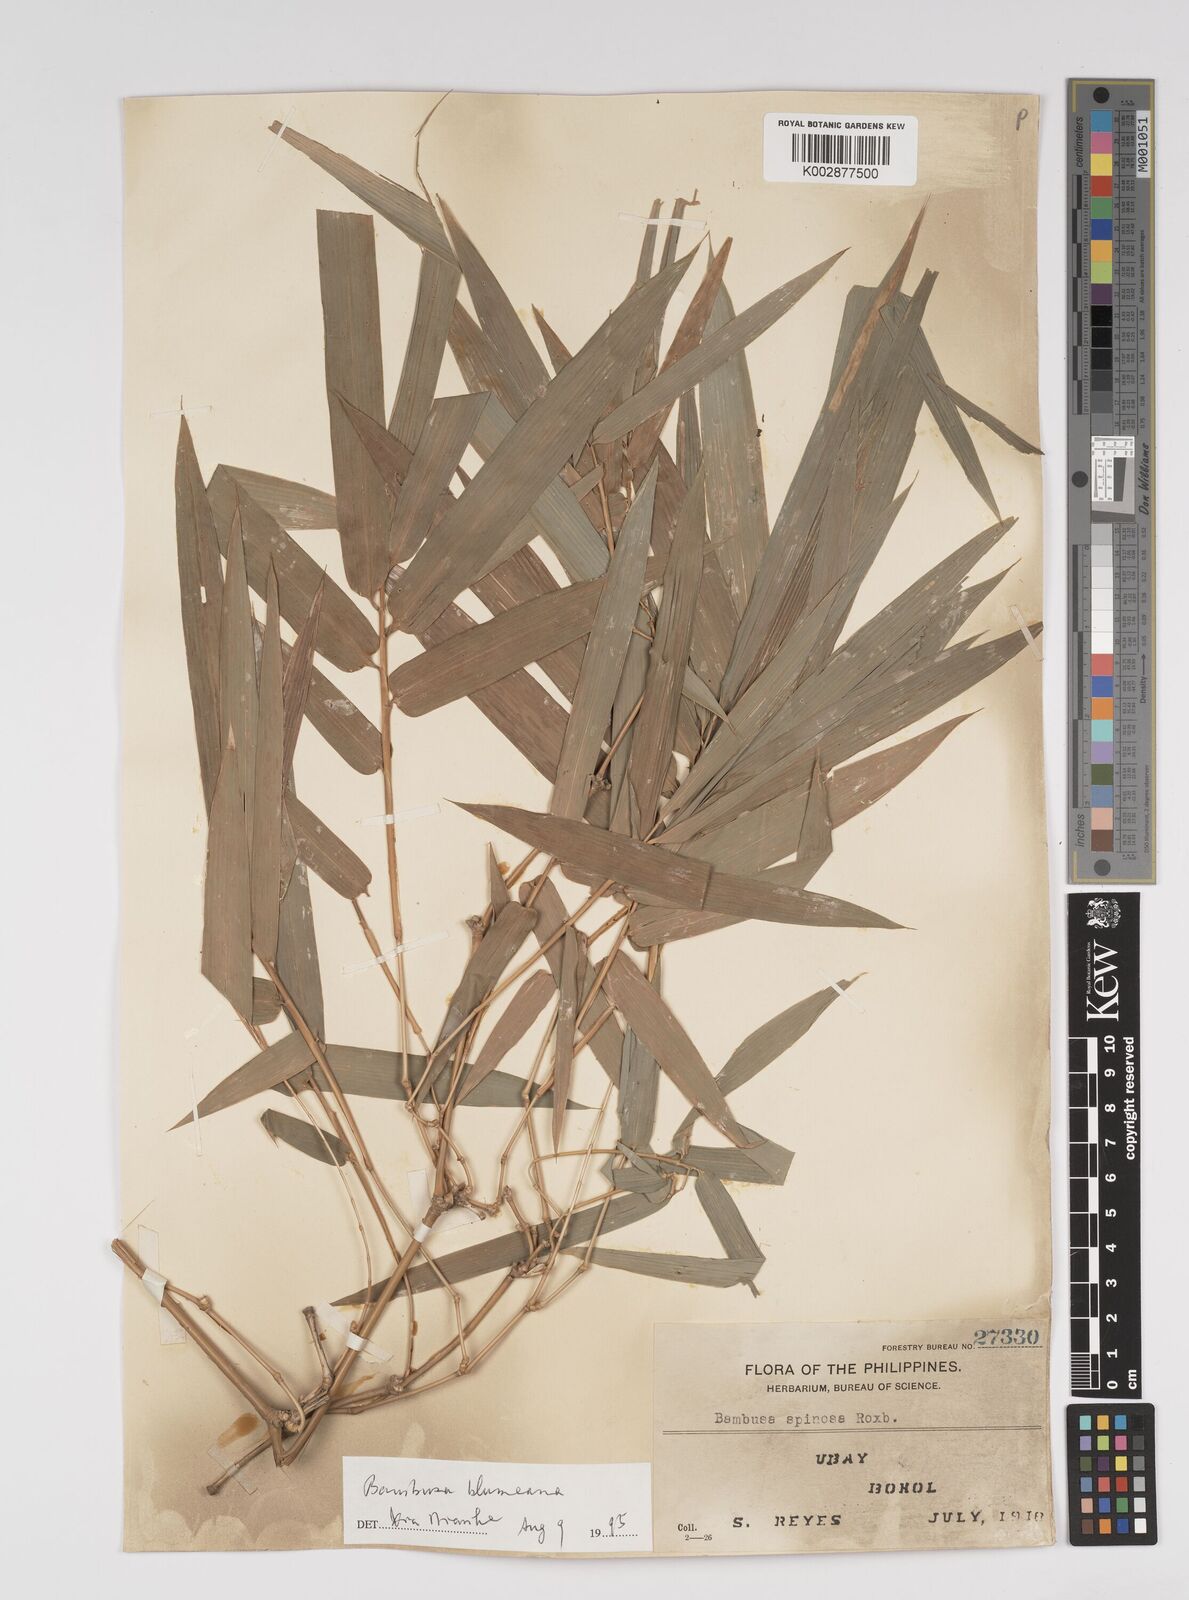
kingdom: Plantae
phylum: Tracheophyta
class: Liliopsida
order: Poales
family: Poaceae
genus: Bambusa
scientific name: Bambusa spinosa
